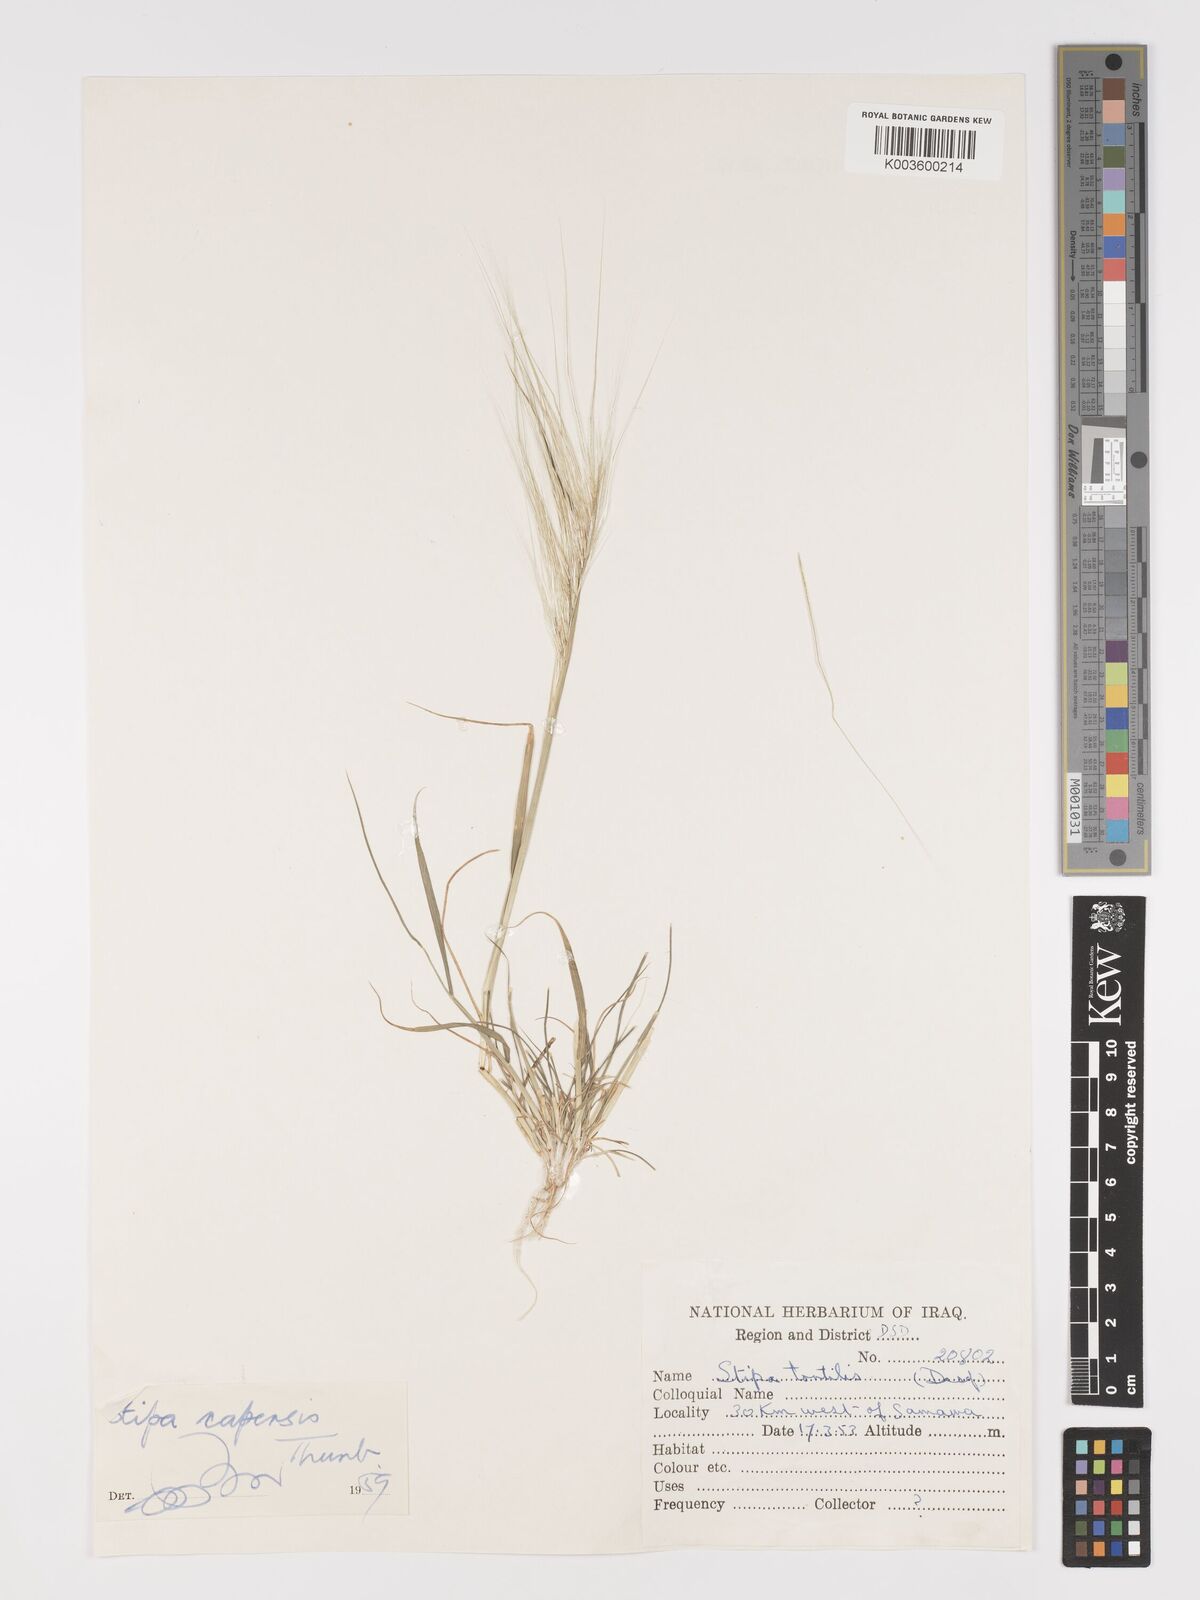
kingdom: Plantae
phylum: Tracheophyta
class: Liliopsida
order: Poales
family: Poaceae
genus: Stipellula
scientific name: Stipellula capensis
